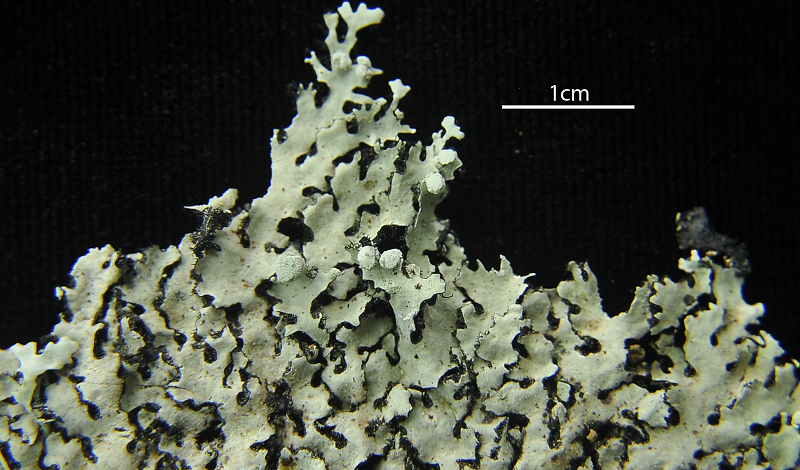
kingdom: Fungi
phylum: Ascomycota
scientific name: Ascomycota
